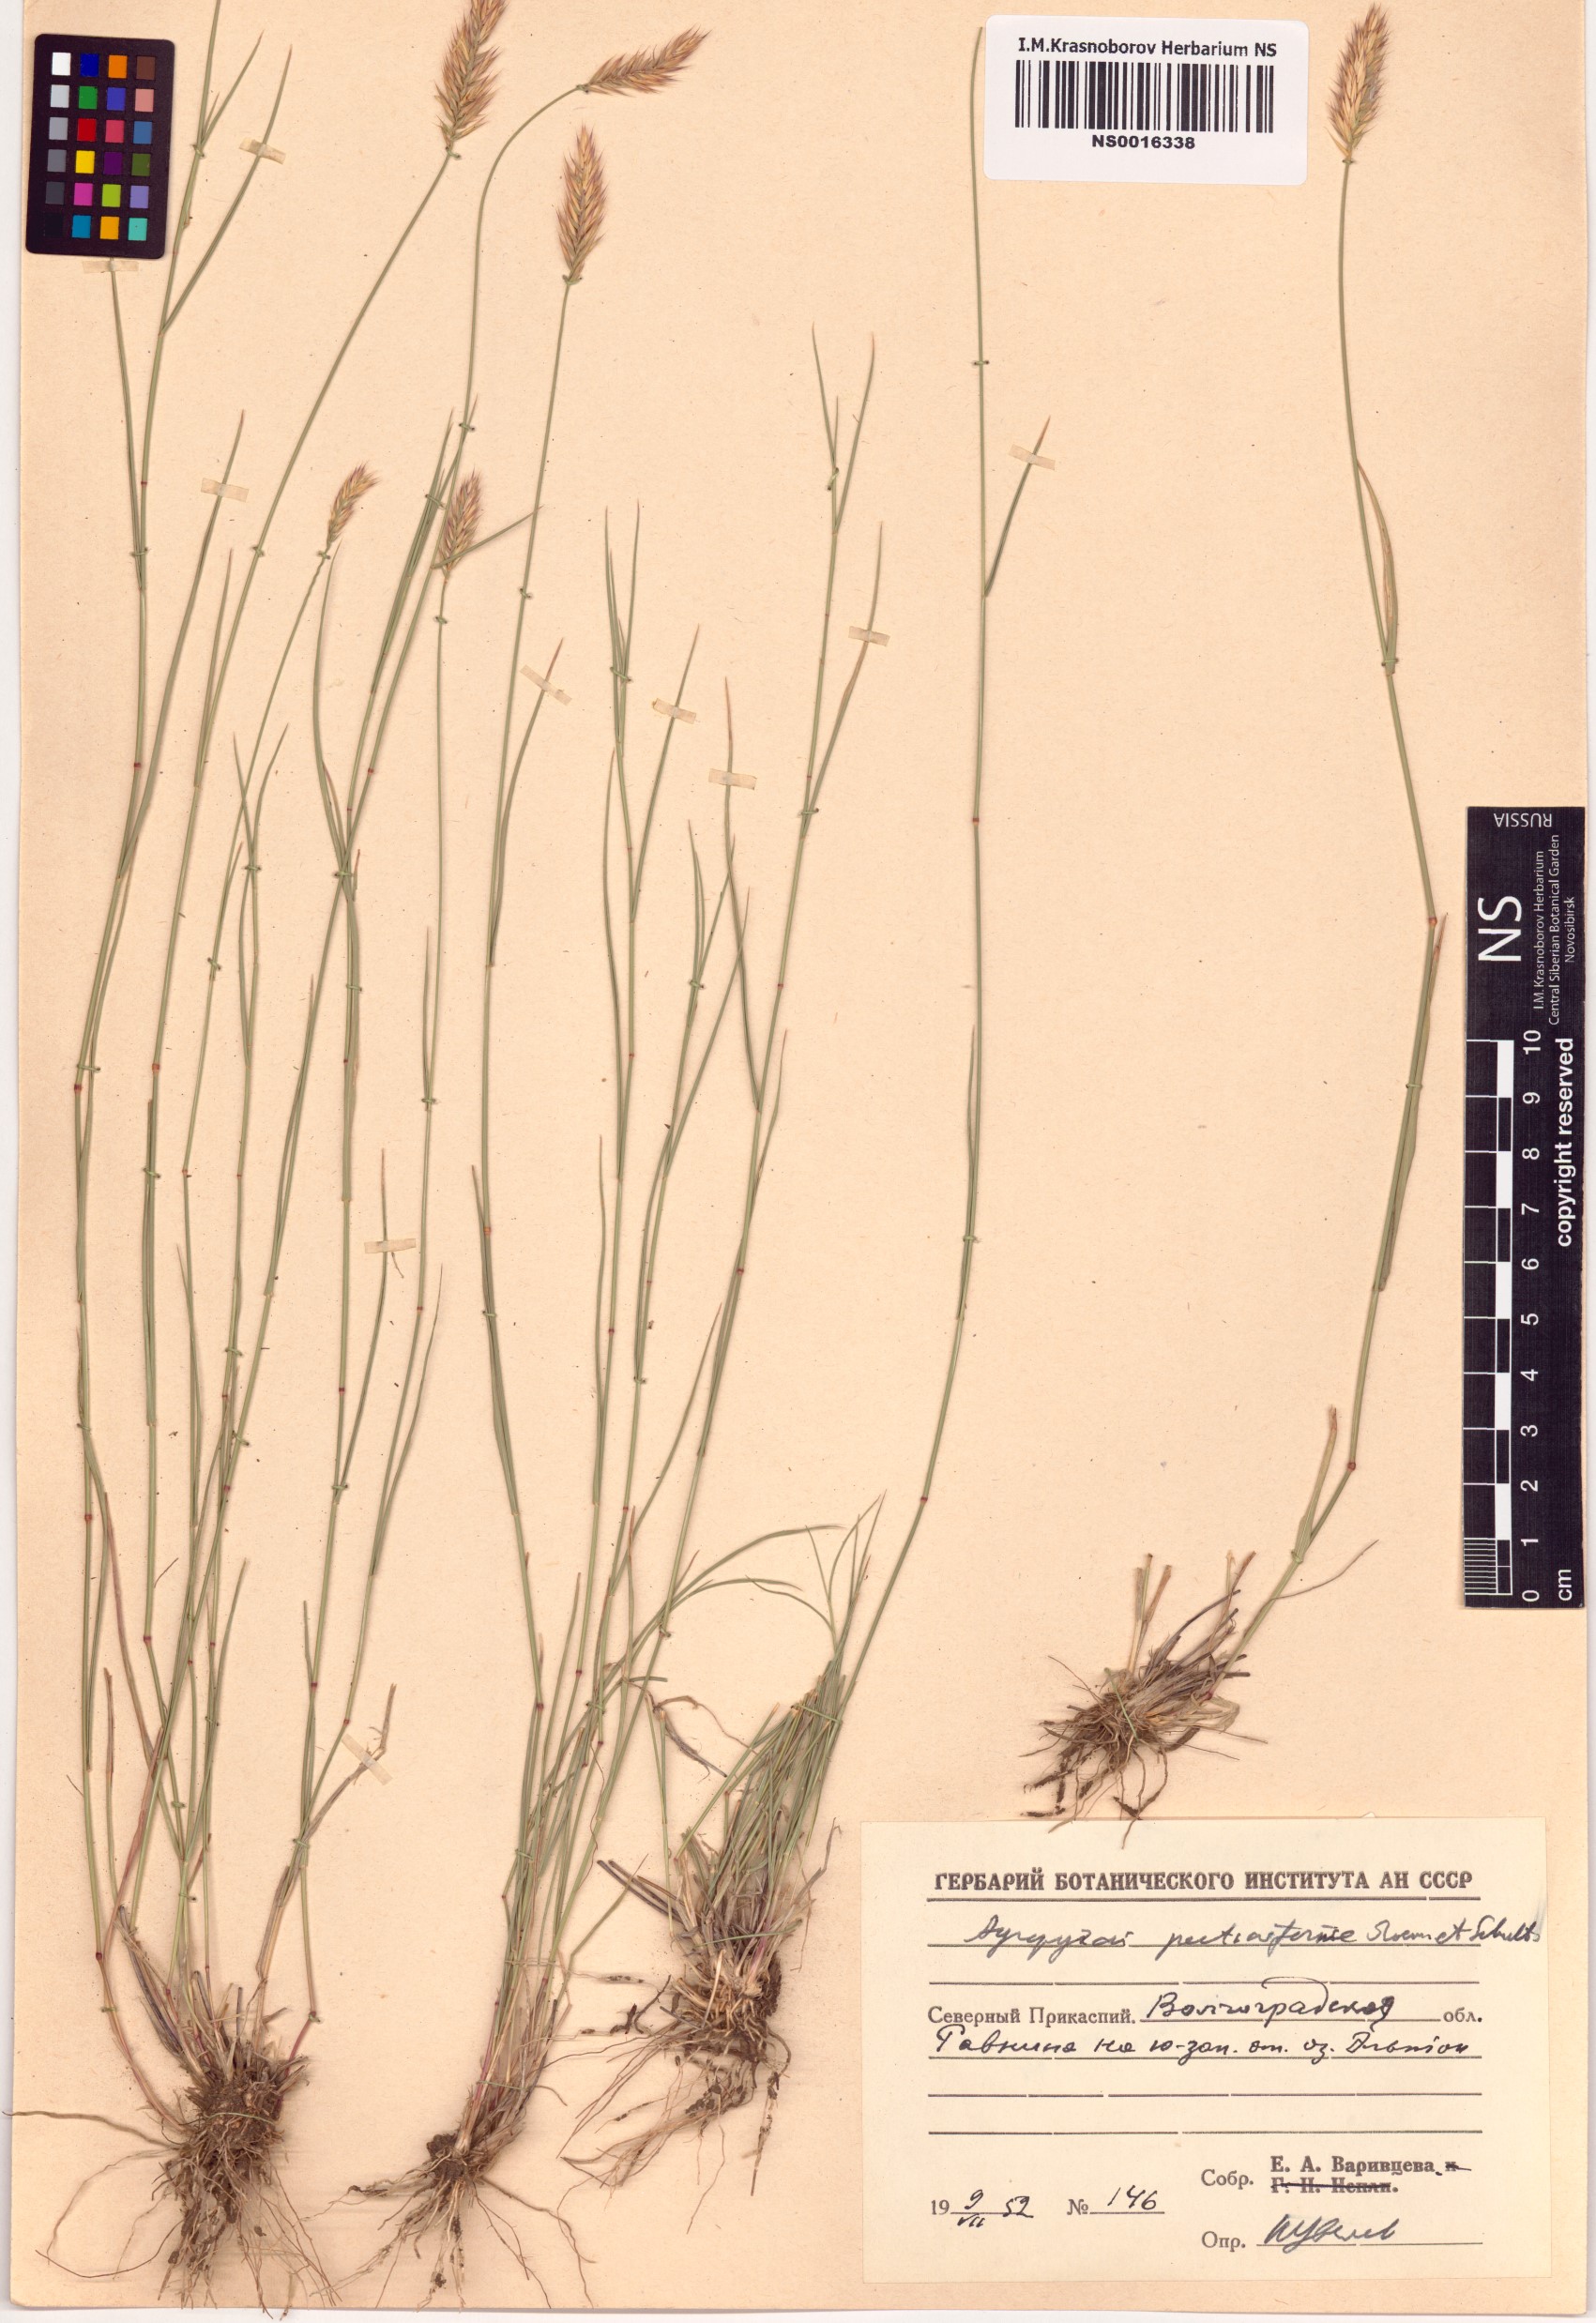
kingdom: Plantae
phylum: Tracheophyta
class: Liliopsida
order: Poales
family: Poaceae
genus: Agropyron
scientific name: Agropyron cristatum
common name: Crested wheatgrass
